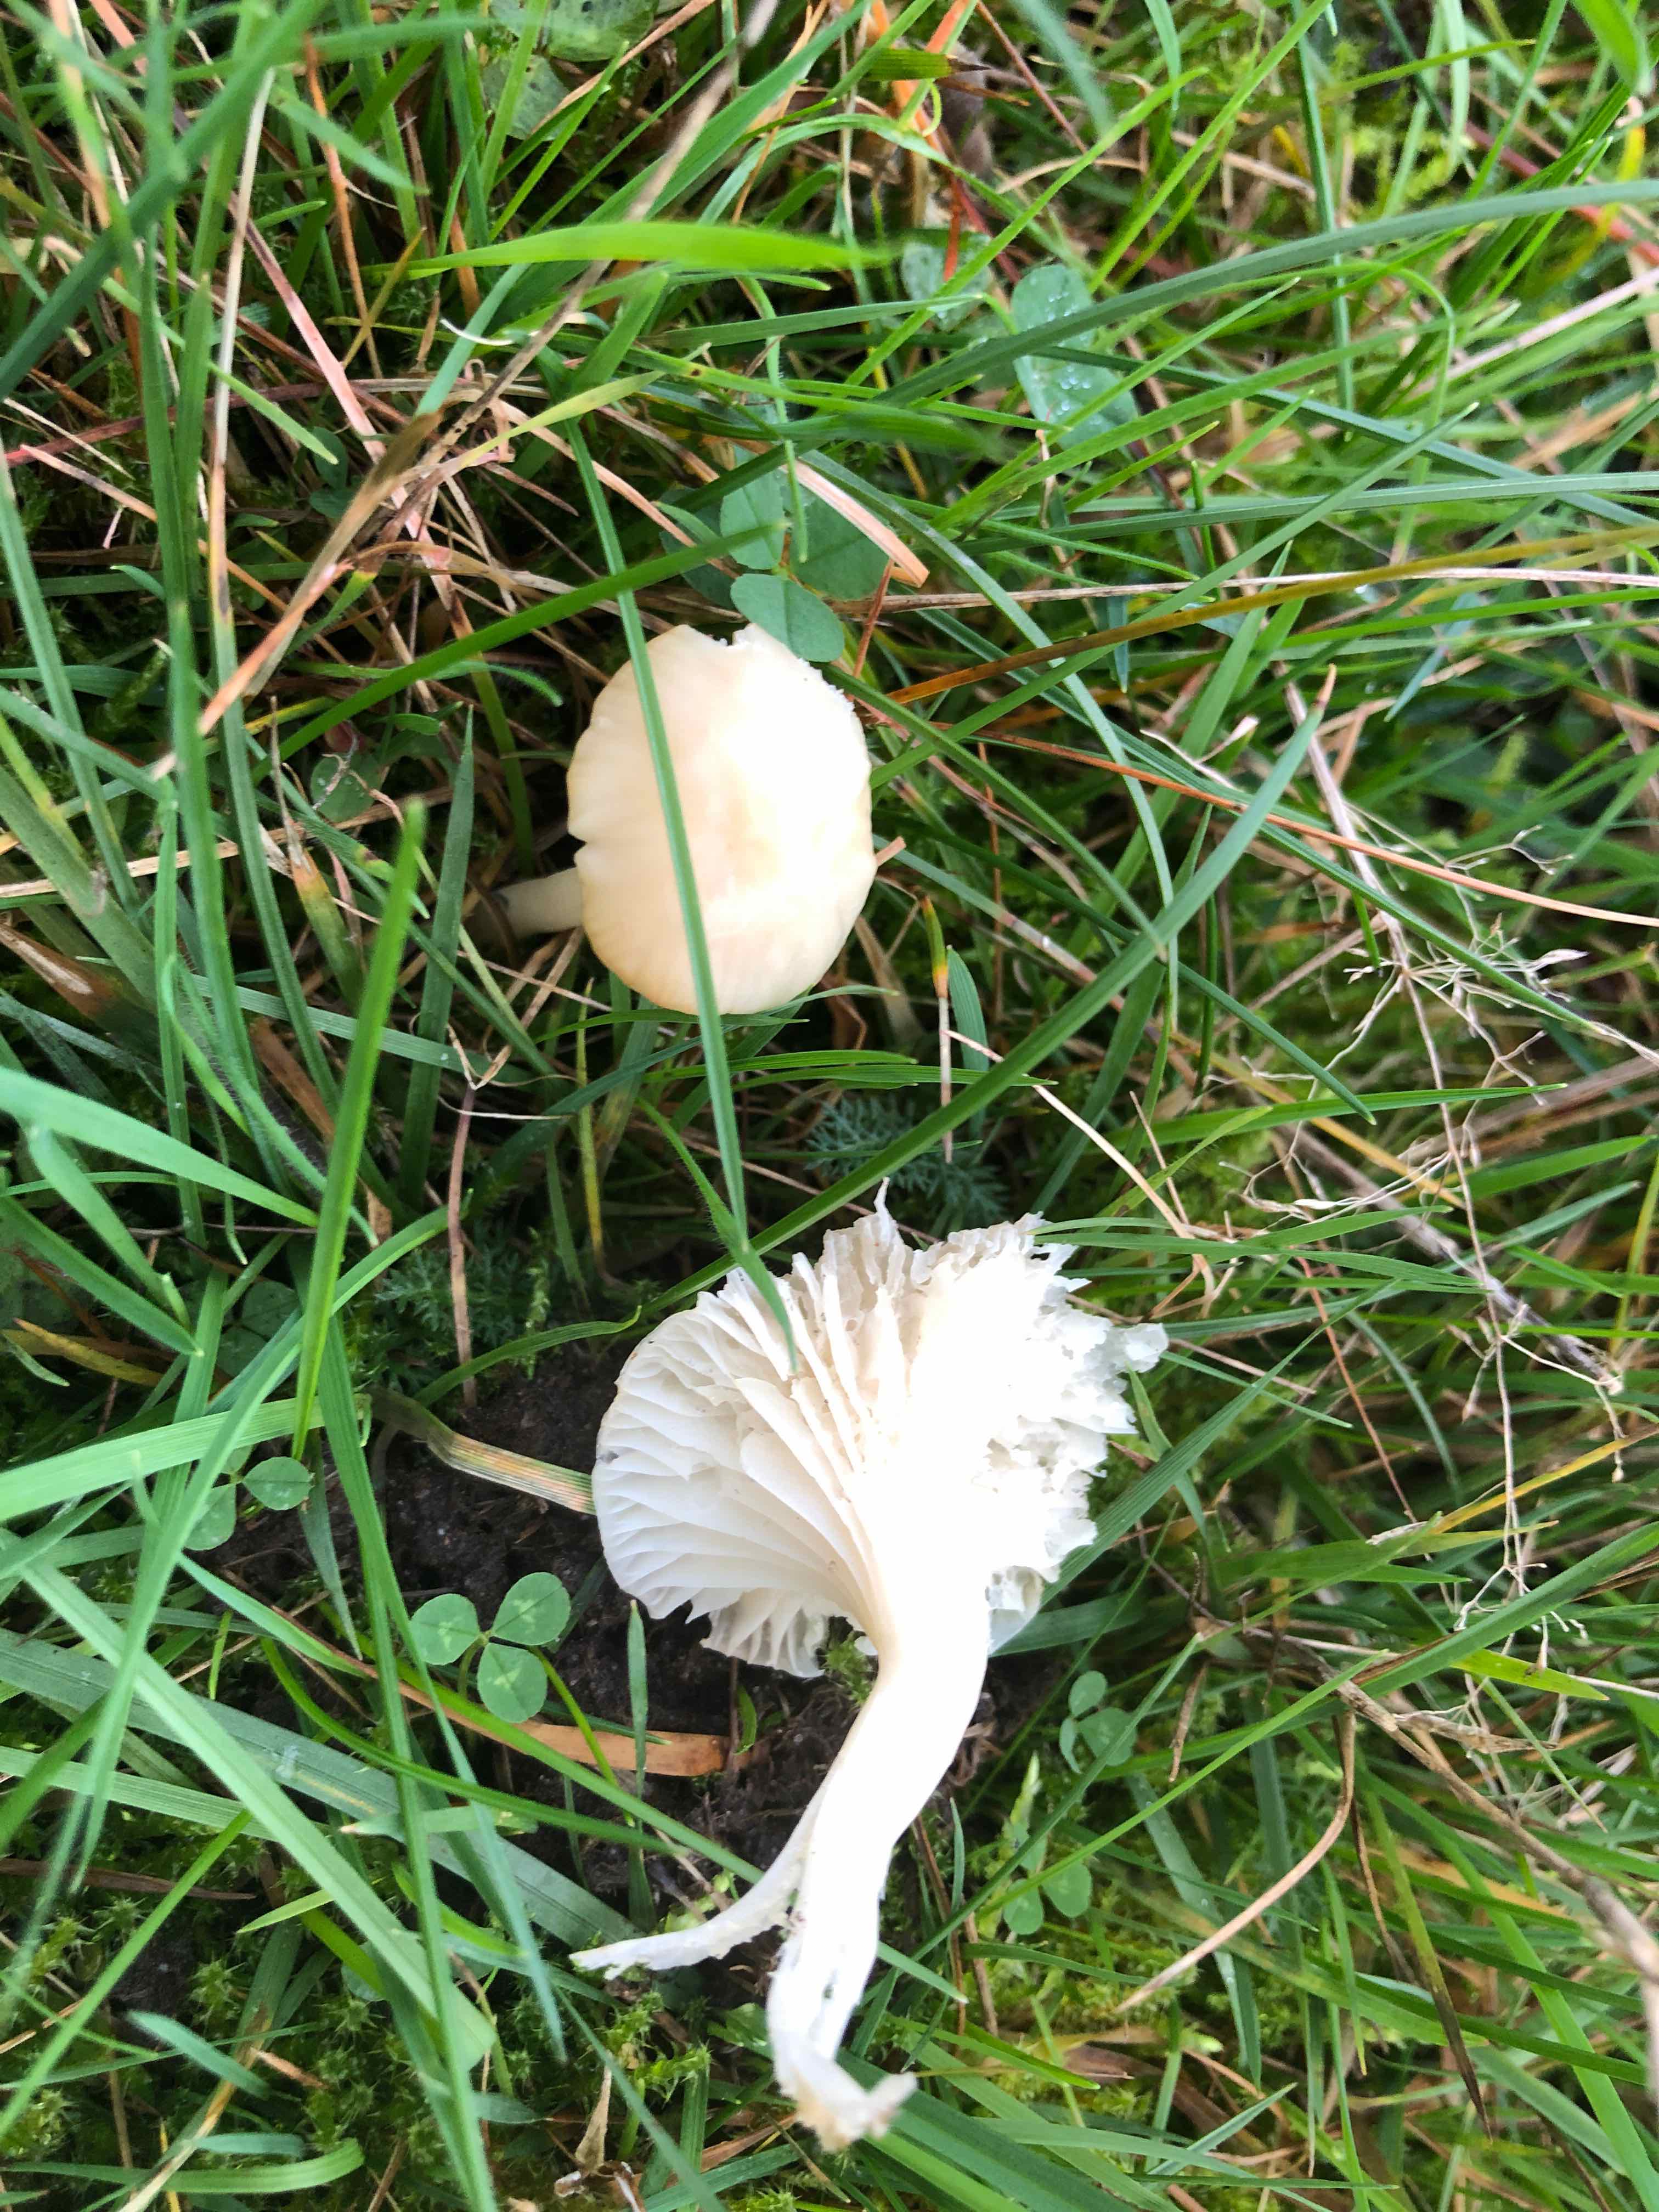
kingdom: Fungi
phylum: Basidiomycota
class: Agaricomycetes
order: Agaricales
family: Hygrophoraceae
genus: Cuphophyllus
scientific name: Cuphophyllus virgineus
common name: snehvid vokshat
